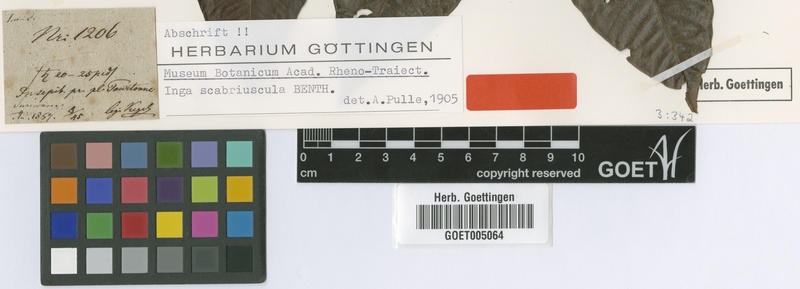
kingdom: Plantae
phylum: Tracheophyta
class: Magnoliopsida
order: Fabales
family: Fabaceae
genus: Inga
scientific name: Inga edulis
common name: Ice cream bean
